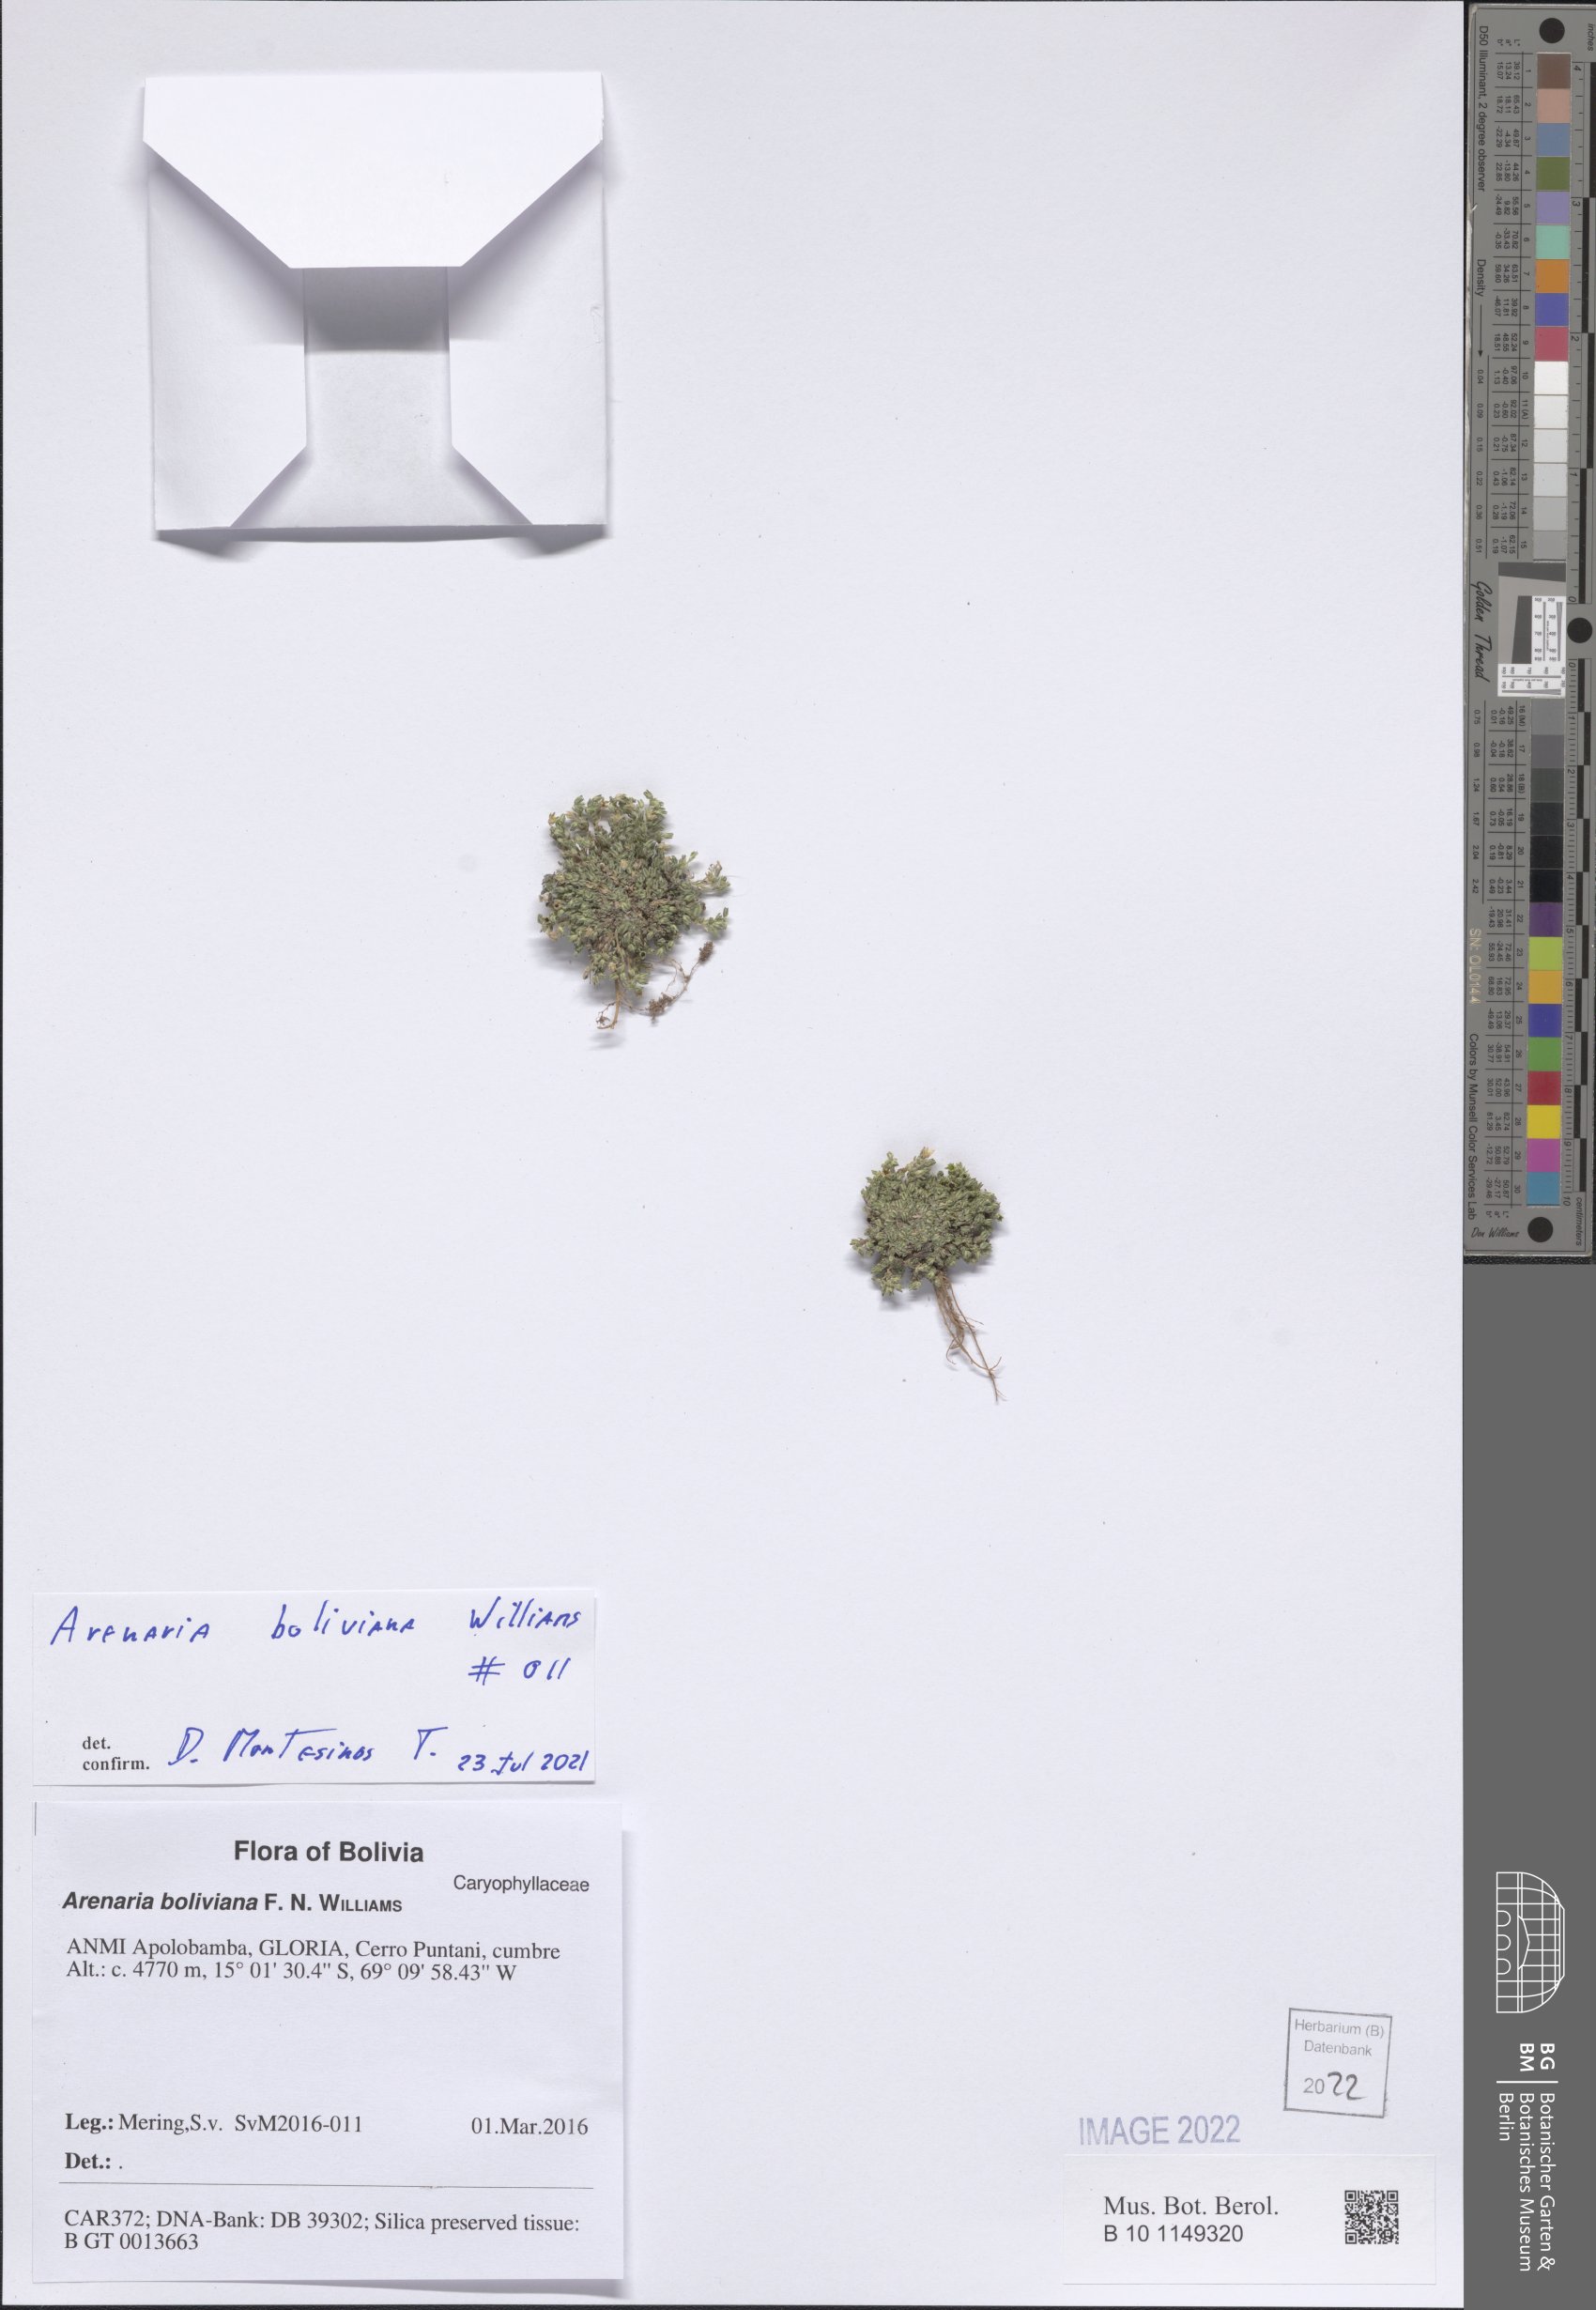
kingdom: Plantae
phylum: Tracheophyta
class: Magnoliopsida
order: Caryophyllales
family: Caryophyllaceae
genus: Arenaria
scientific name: Arenaria boliviana
